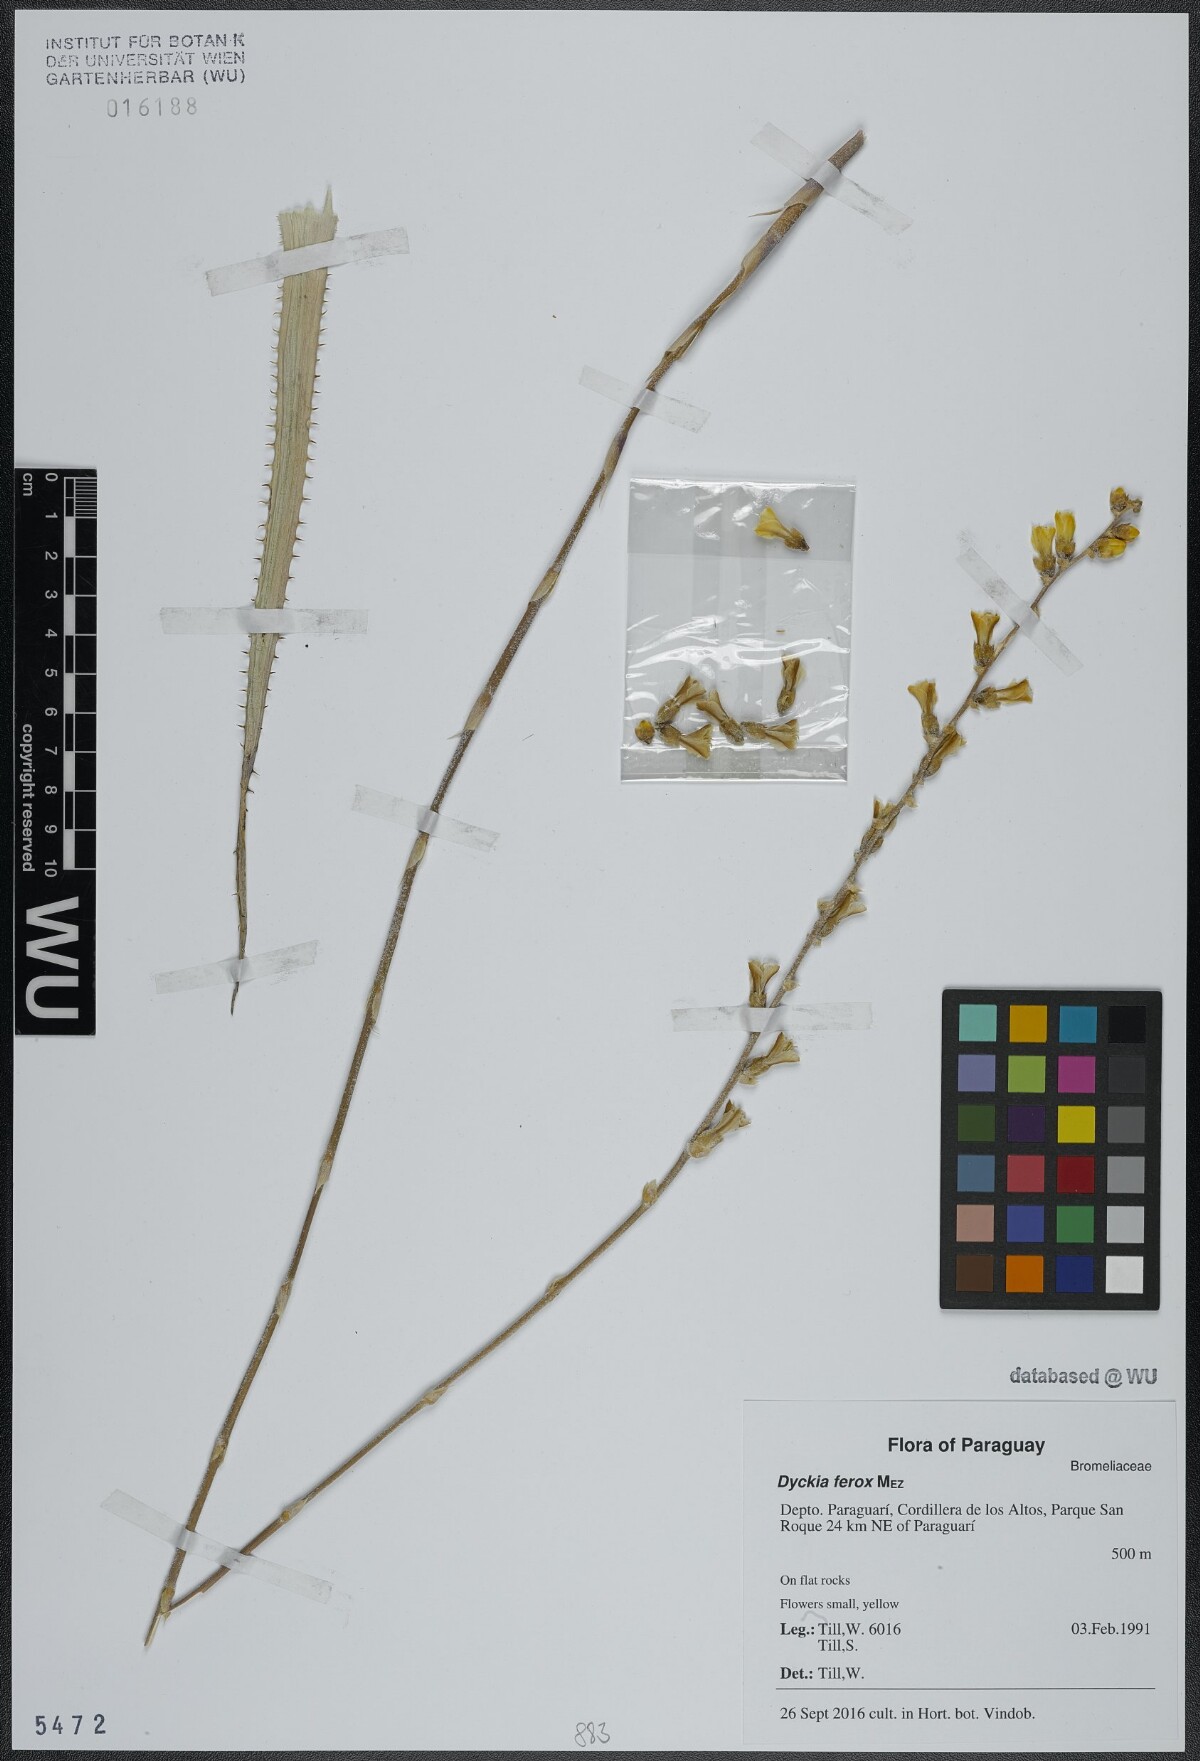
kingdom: Plantae
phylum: Tracheophyta
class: Liliopsida
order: Poales
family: Bromeliaceae
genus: Dyckia
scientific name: Dyckia ferox
